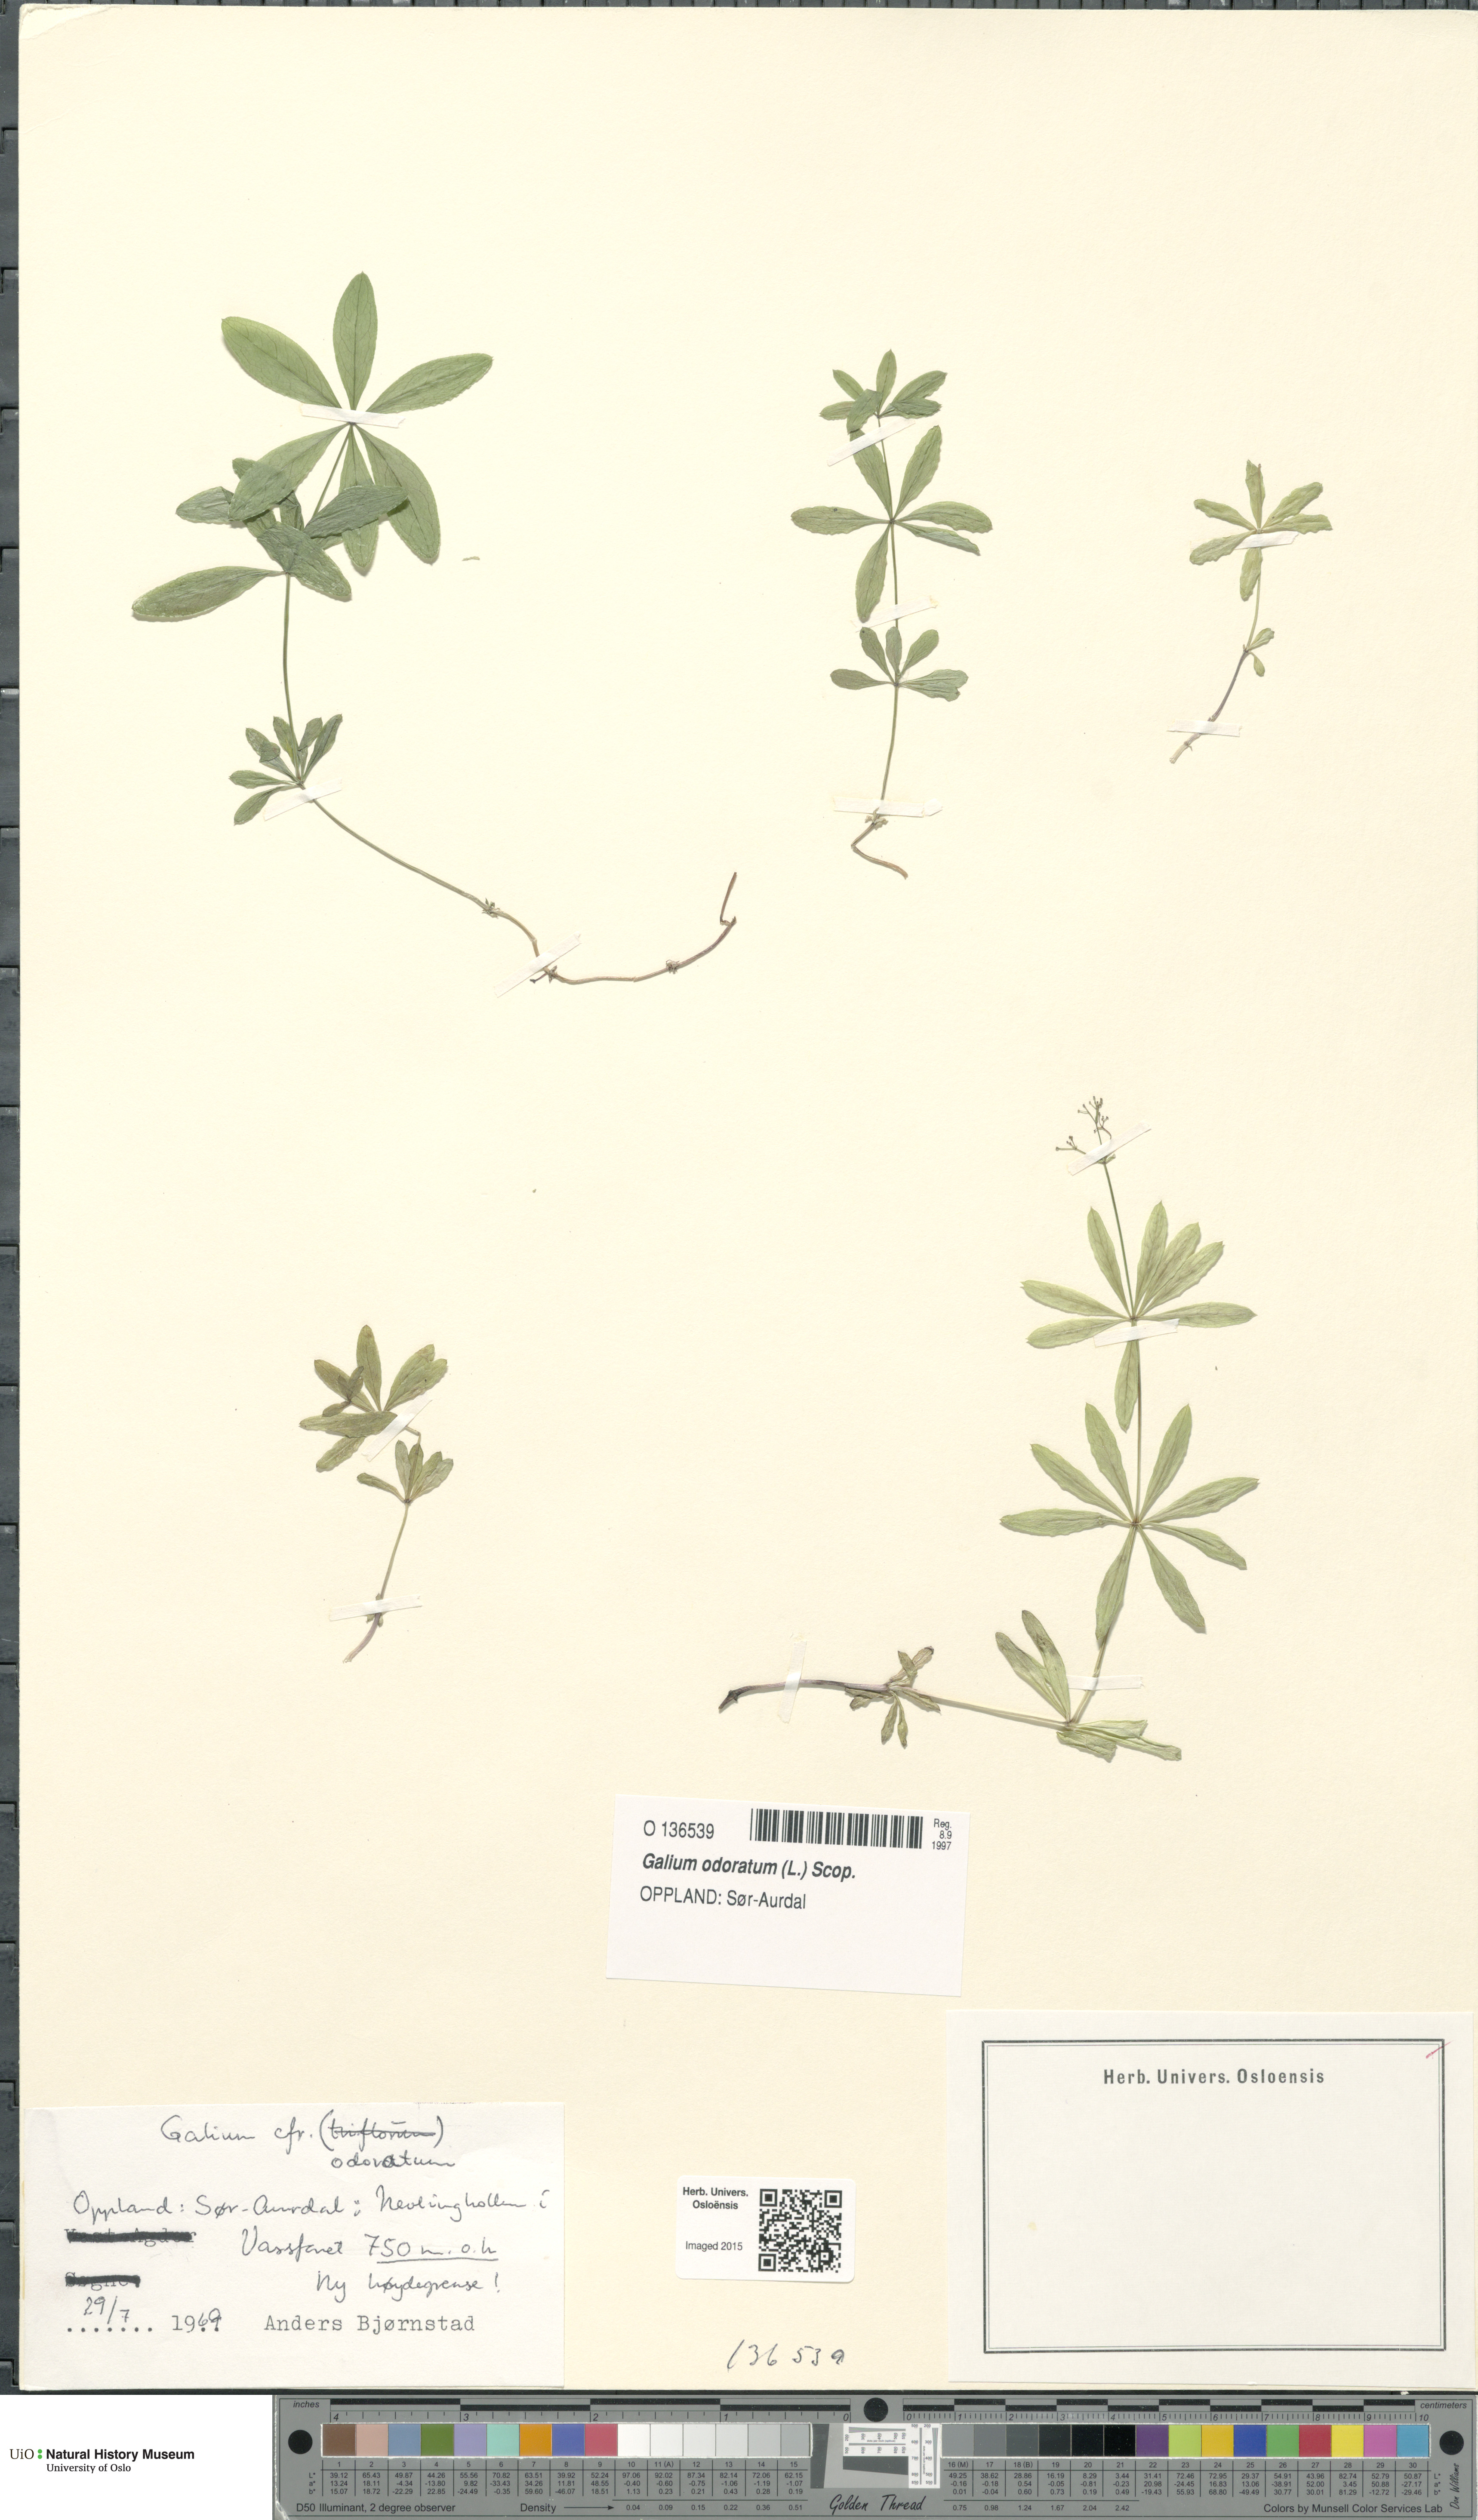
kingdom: Plantae
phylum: Tracheophyta
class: Magnoliopsida
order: Gentianales
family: Rubiaceae
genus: Galium
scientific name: Galium odoratum
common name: Sweet woodruff
